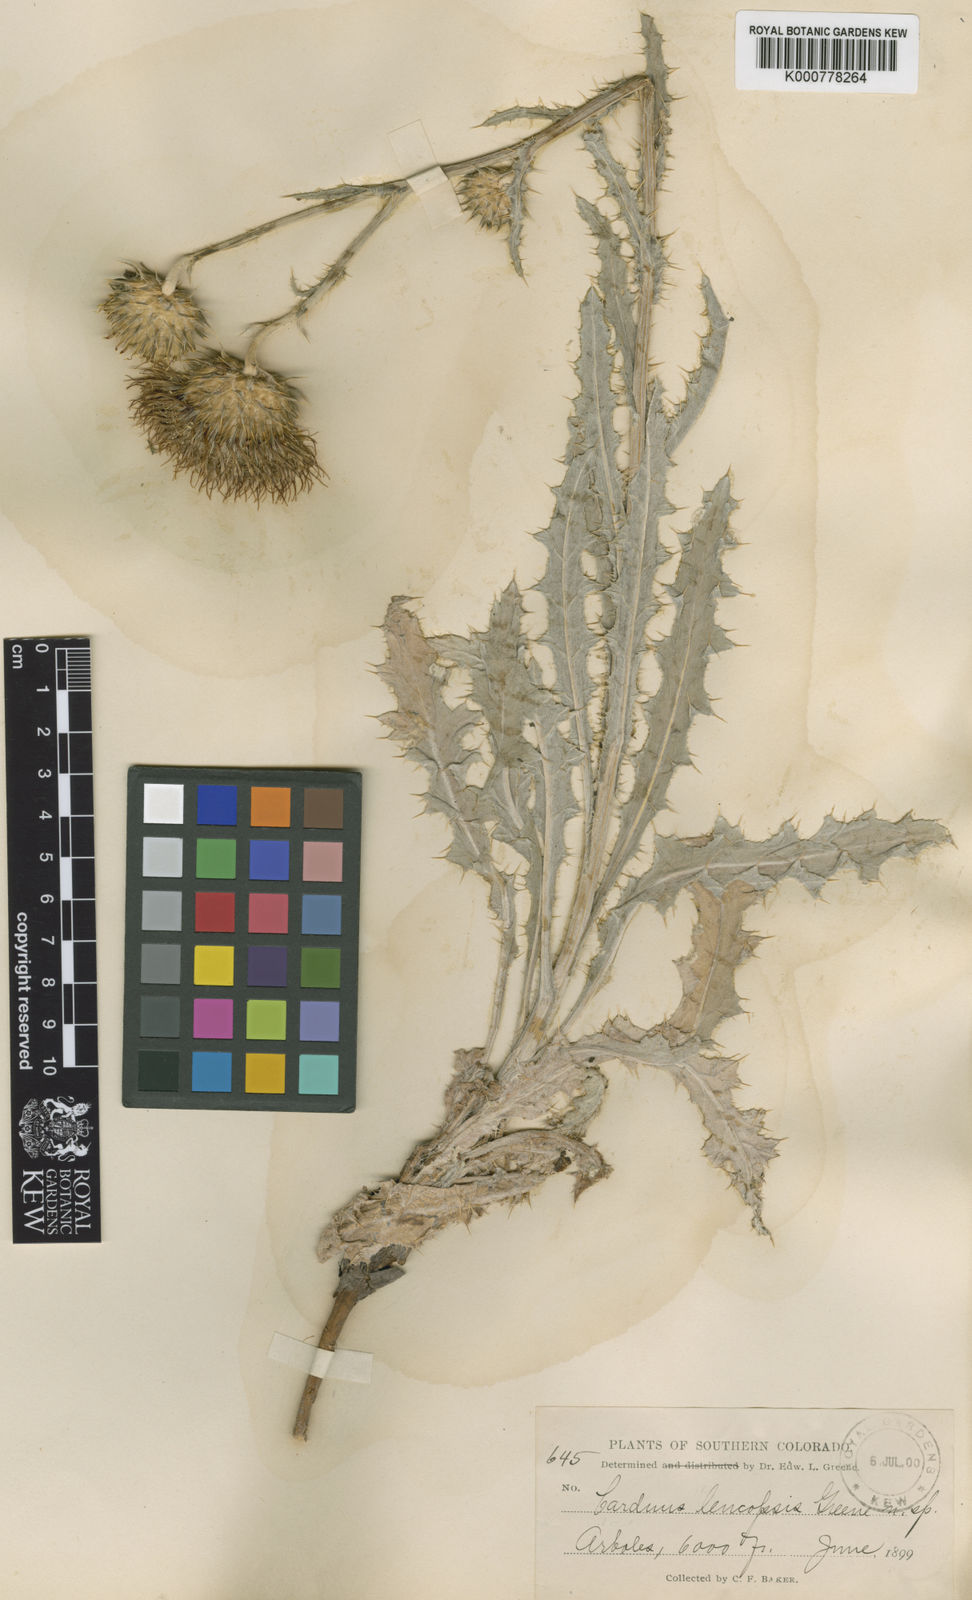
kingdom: Plantae
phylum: Tracheophyta
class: Magnoliopsida
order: Asterales
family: Asteraceae
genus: Cirsium
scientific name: Cirsium leucopsis
